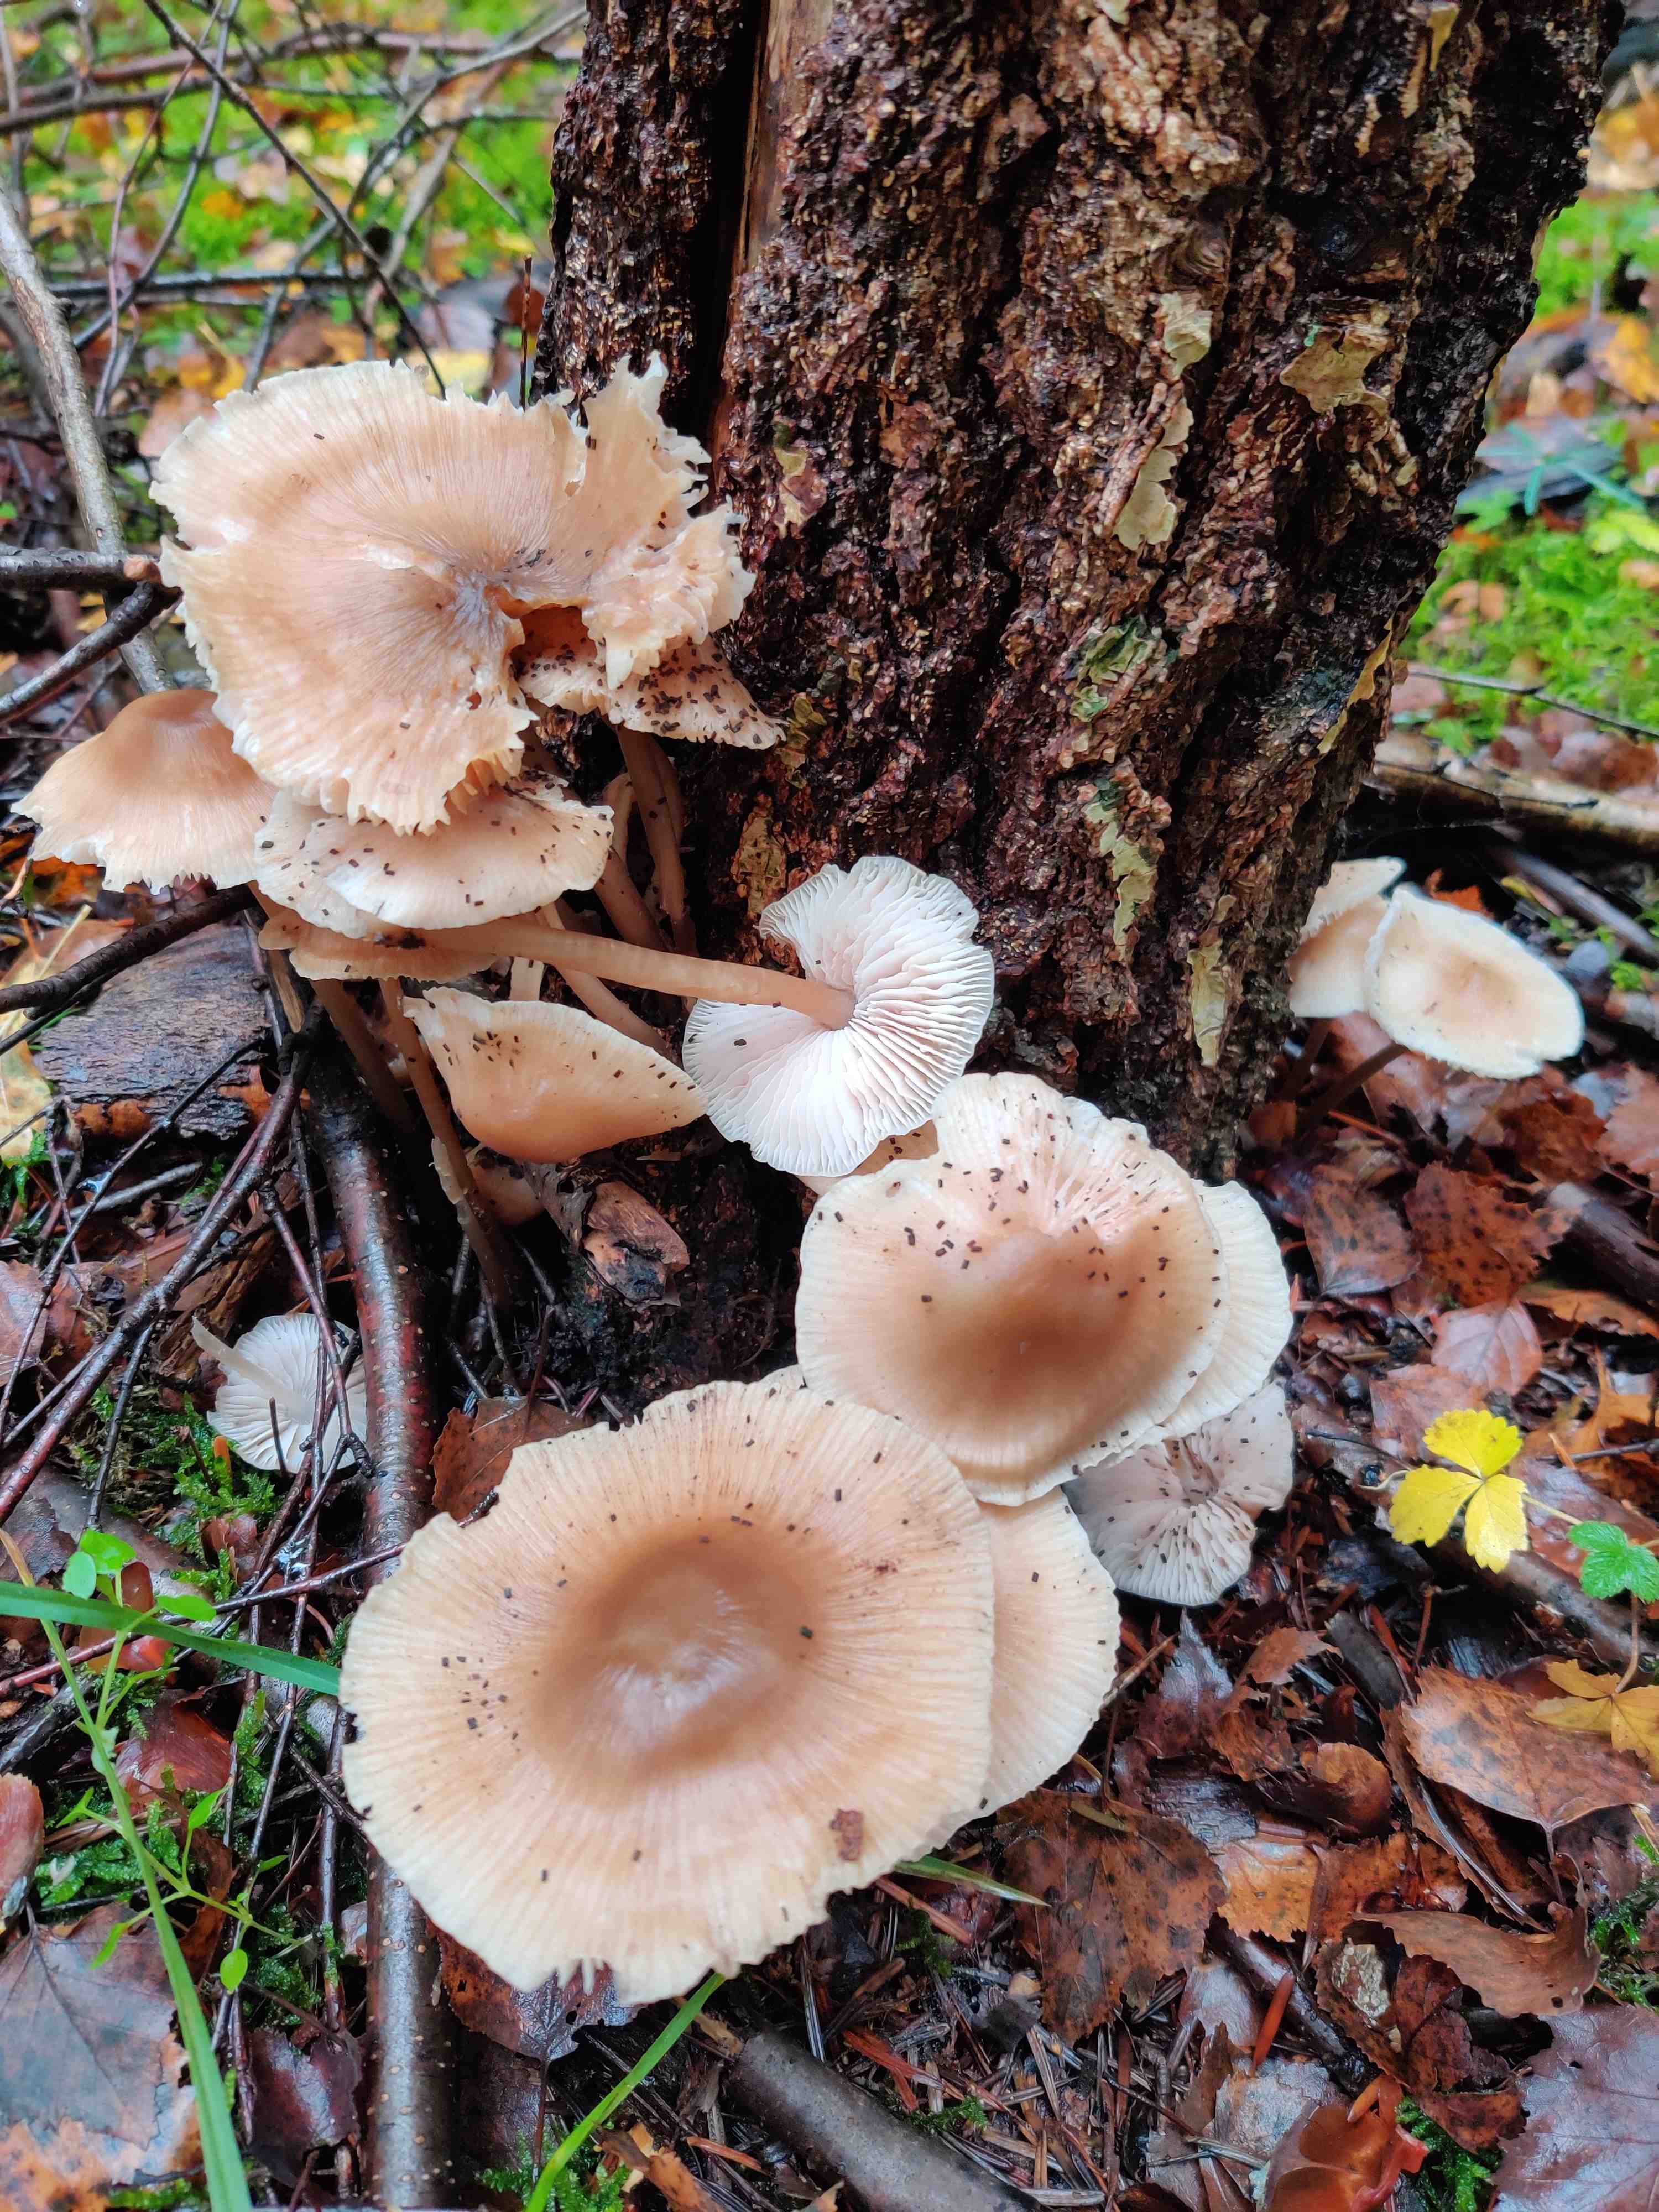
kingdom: Fungi
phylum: Basidiomycota
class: Agaricomycetes
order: Agaricales
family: Mycenaceae
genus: Mycena
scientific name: Mycena galericulata
